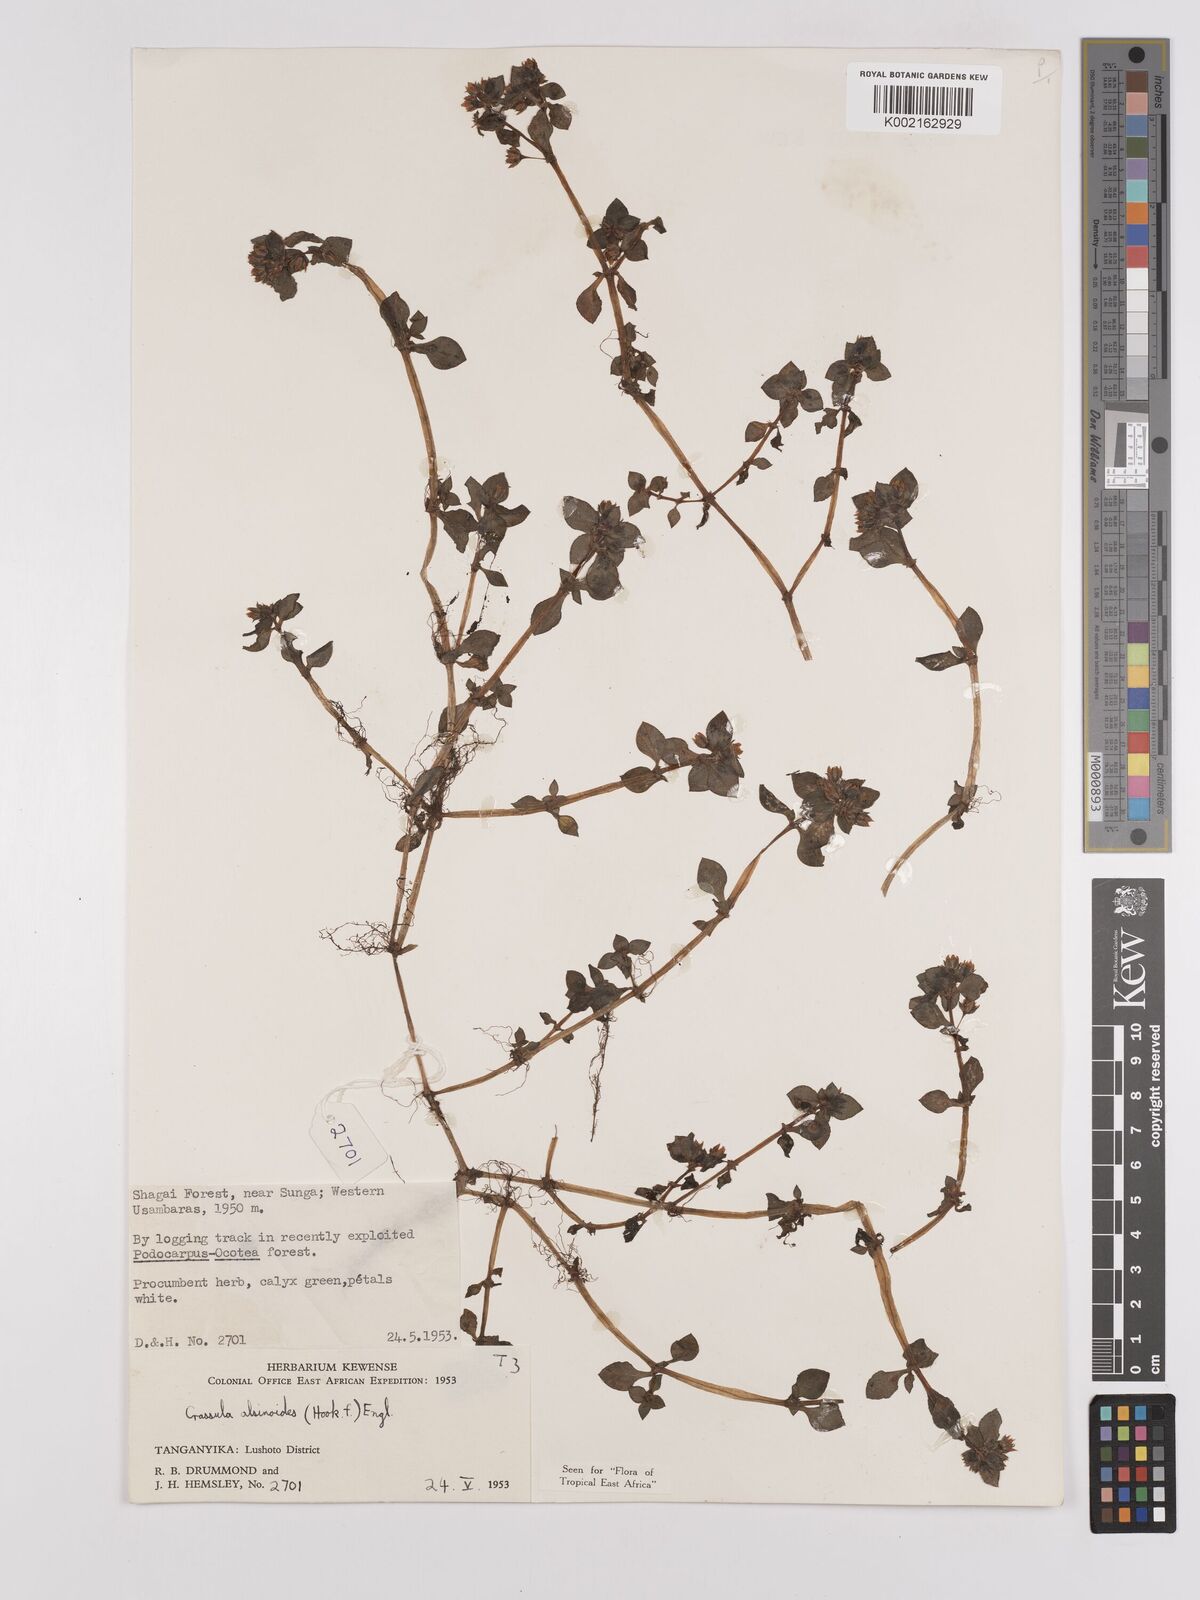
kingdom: Plantae
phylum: Tracheophyta
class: Magnoliopsida
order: Saxifragales
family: Crassulaceae
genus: Crassula
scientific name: Crassula alsinoides
